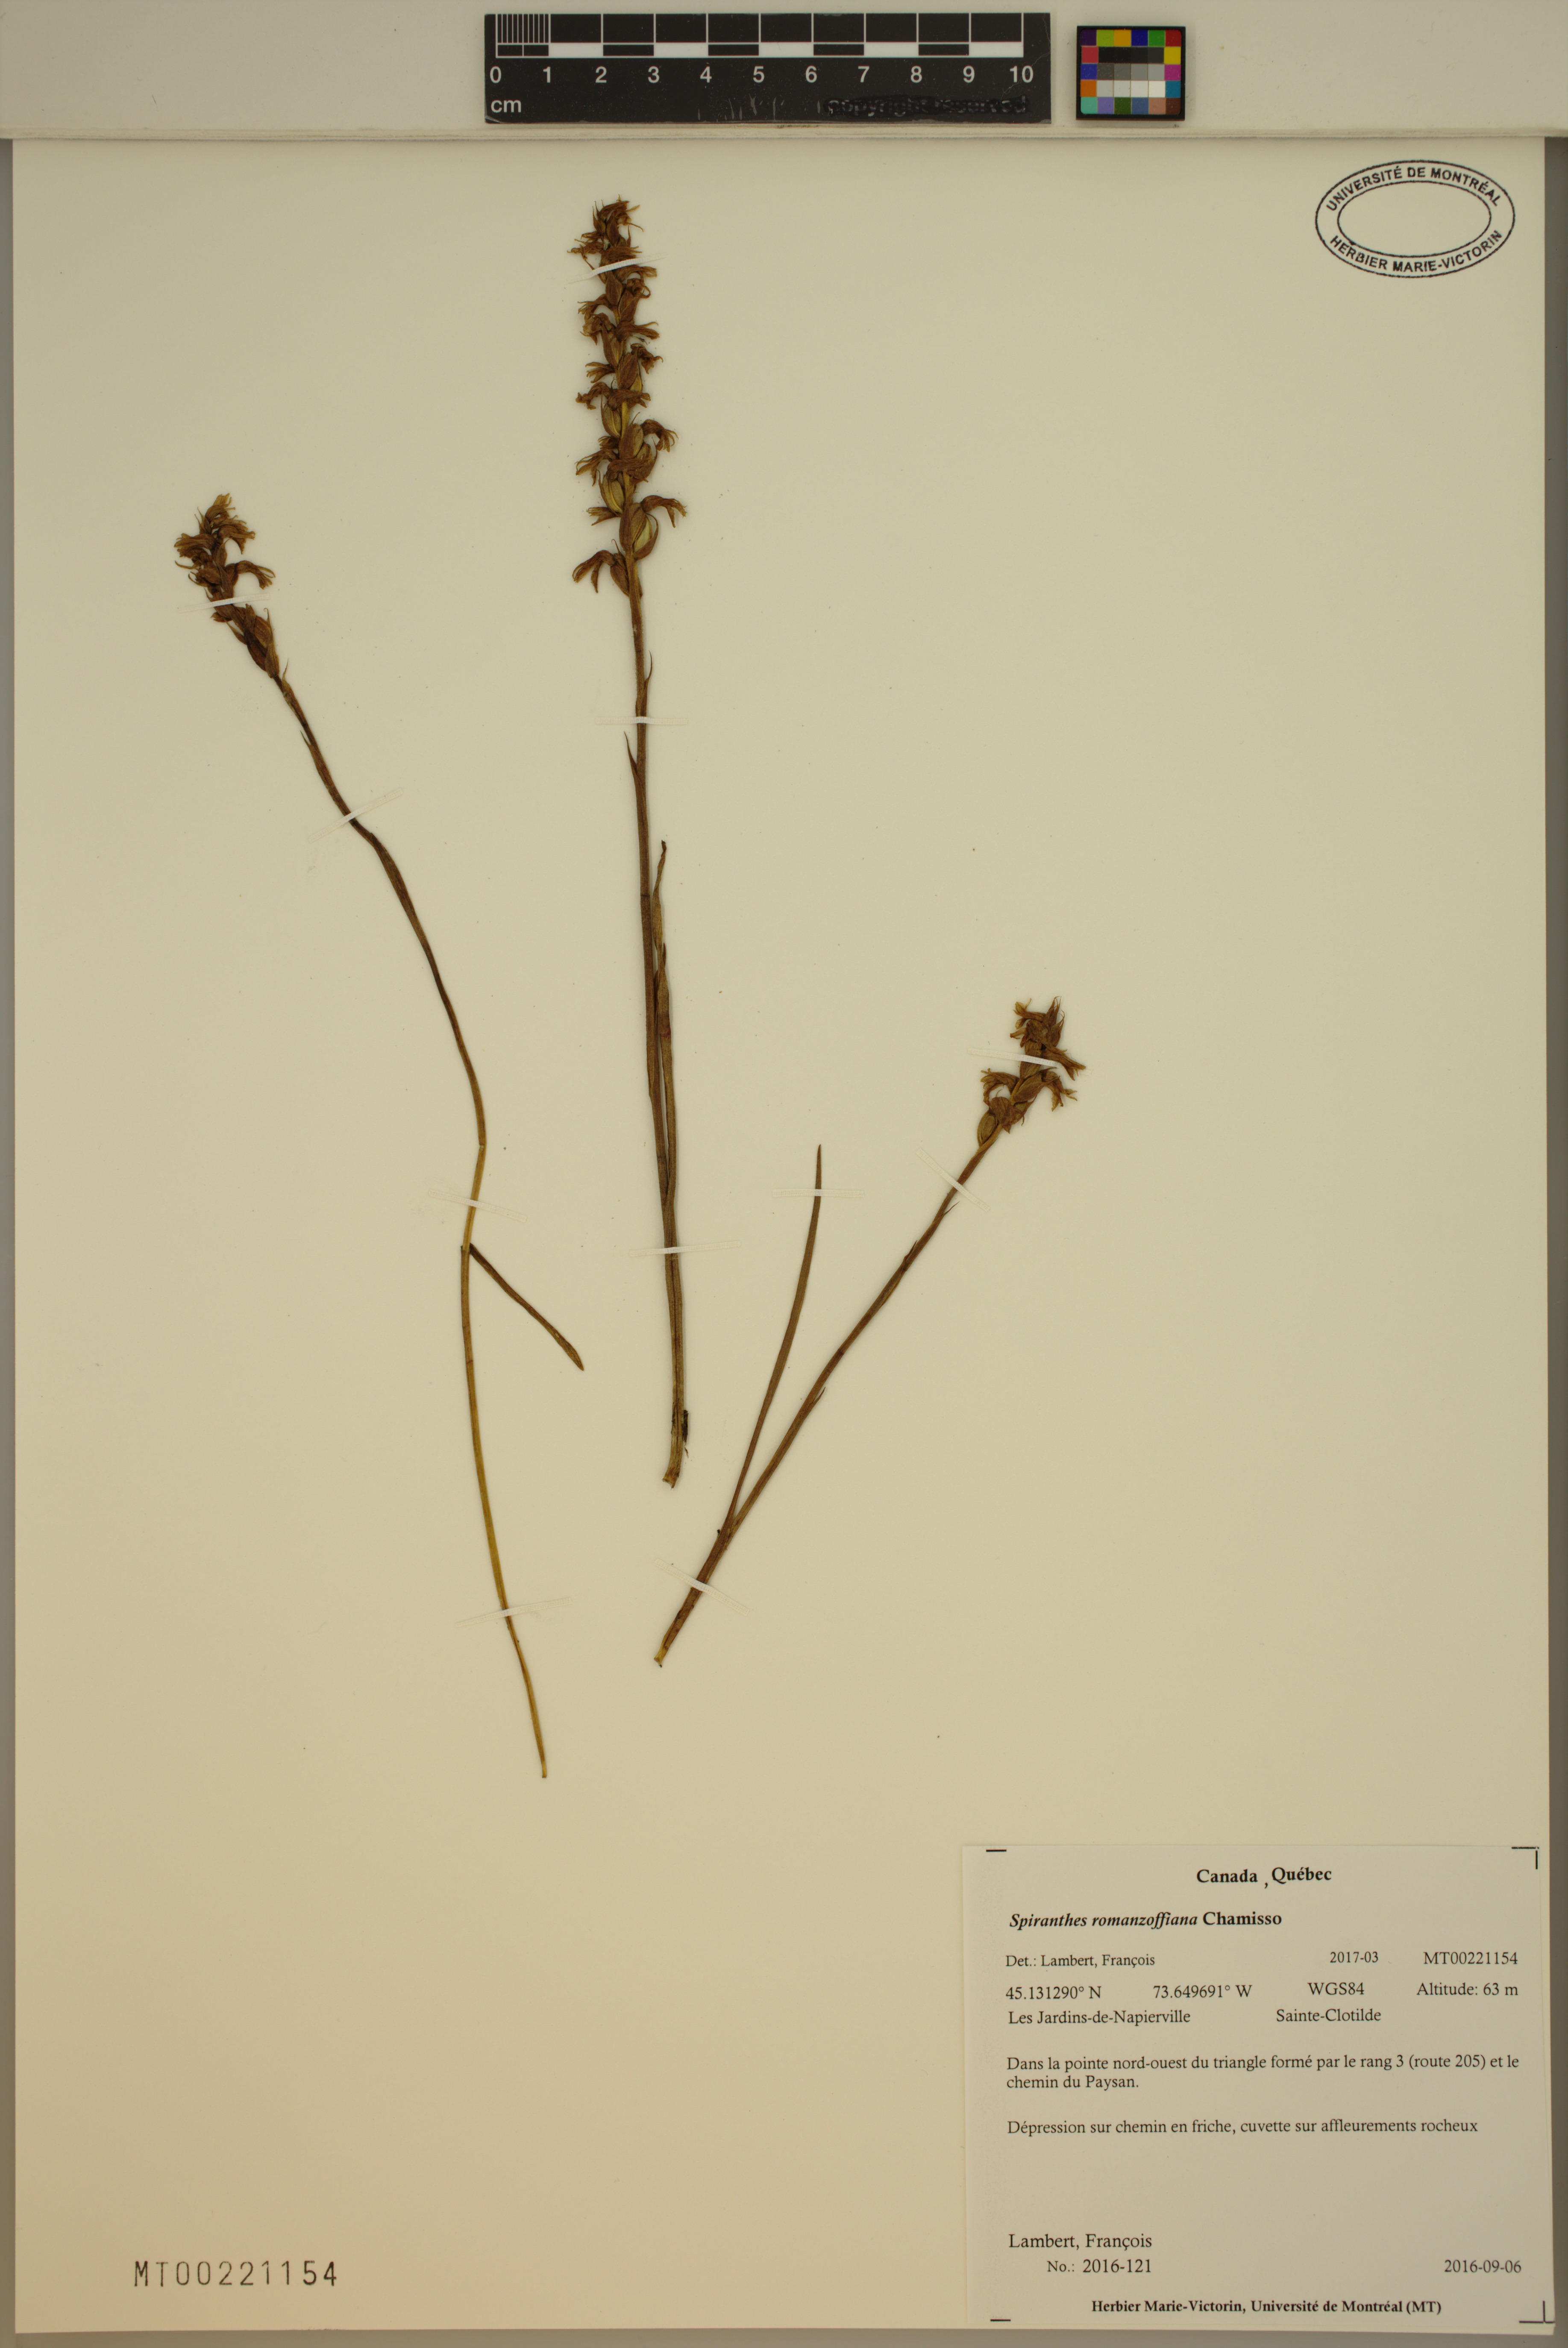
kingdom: Plantae
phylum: Tracheophyta
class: Liliopsida
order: Asparagales
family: Orchidaceae
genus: Spiranthes
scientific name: Spiranthes romanzoffiana
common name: Irish lady's-tresses
